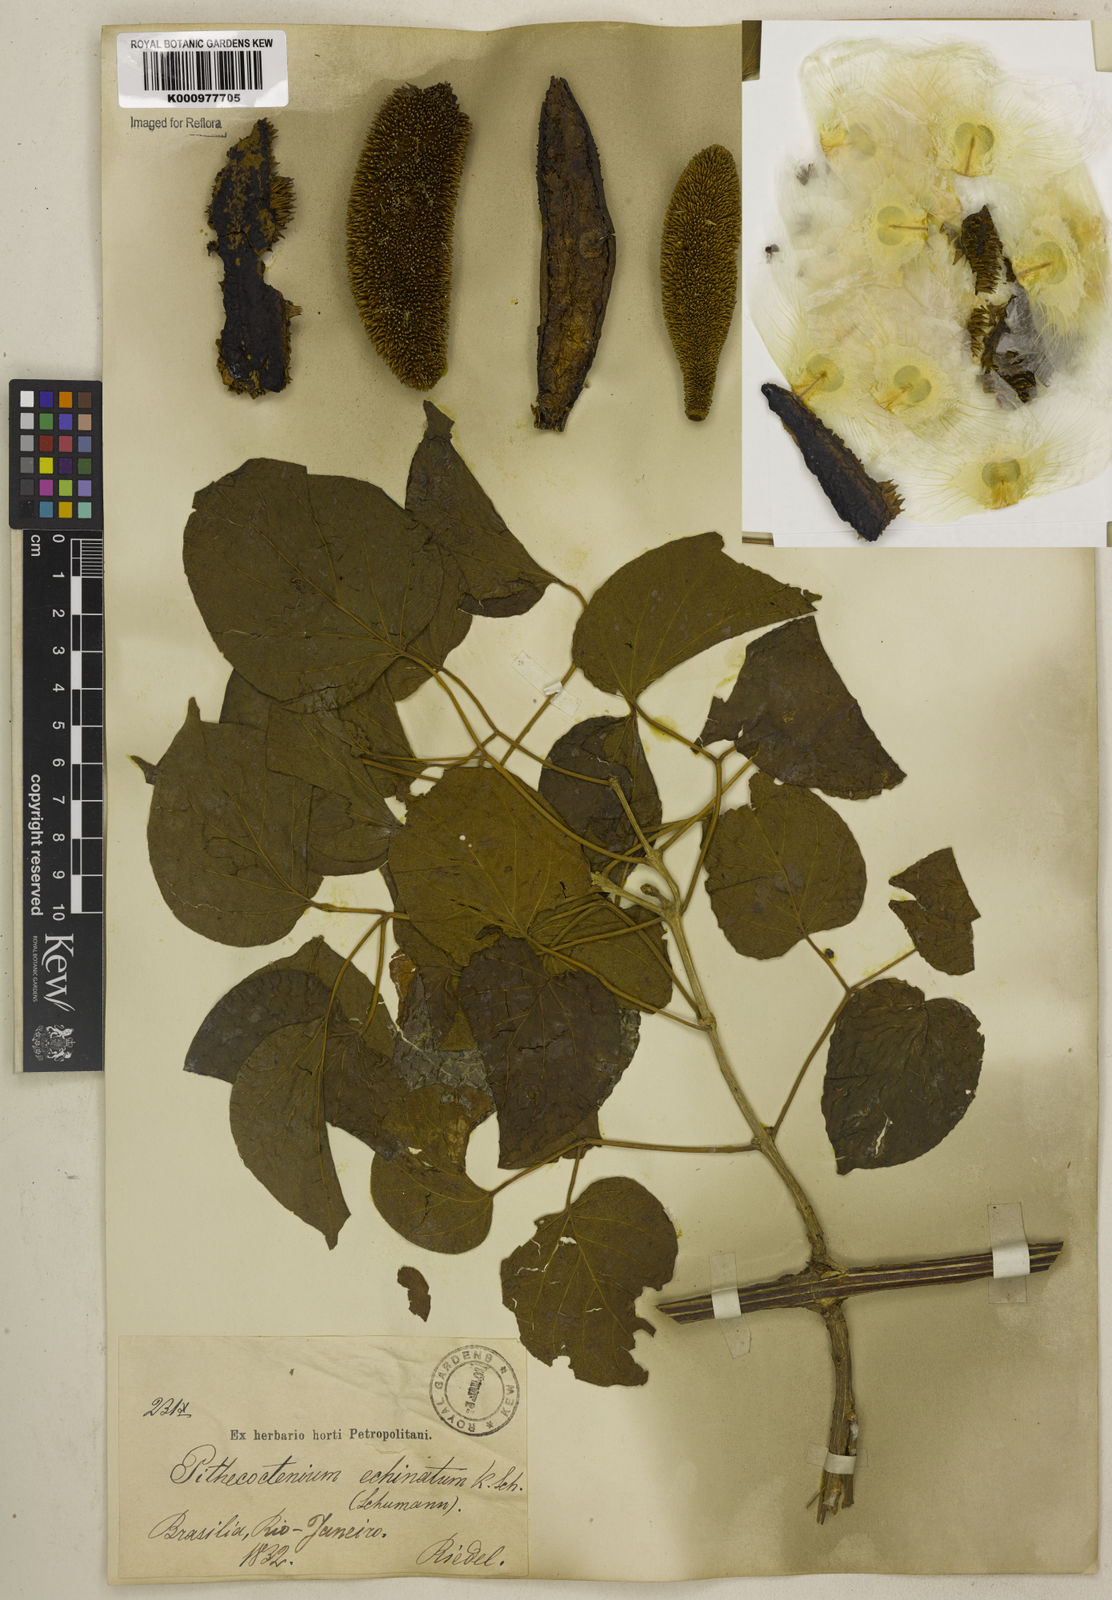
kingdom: Plantae
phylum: Tracheophyta
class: Magnoliopsida
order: Lamiales
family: Bignoniaceae
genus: Amphilophium
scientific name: Amphilophium crucigerum
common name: Monkey comb
